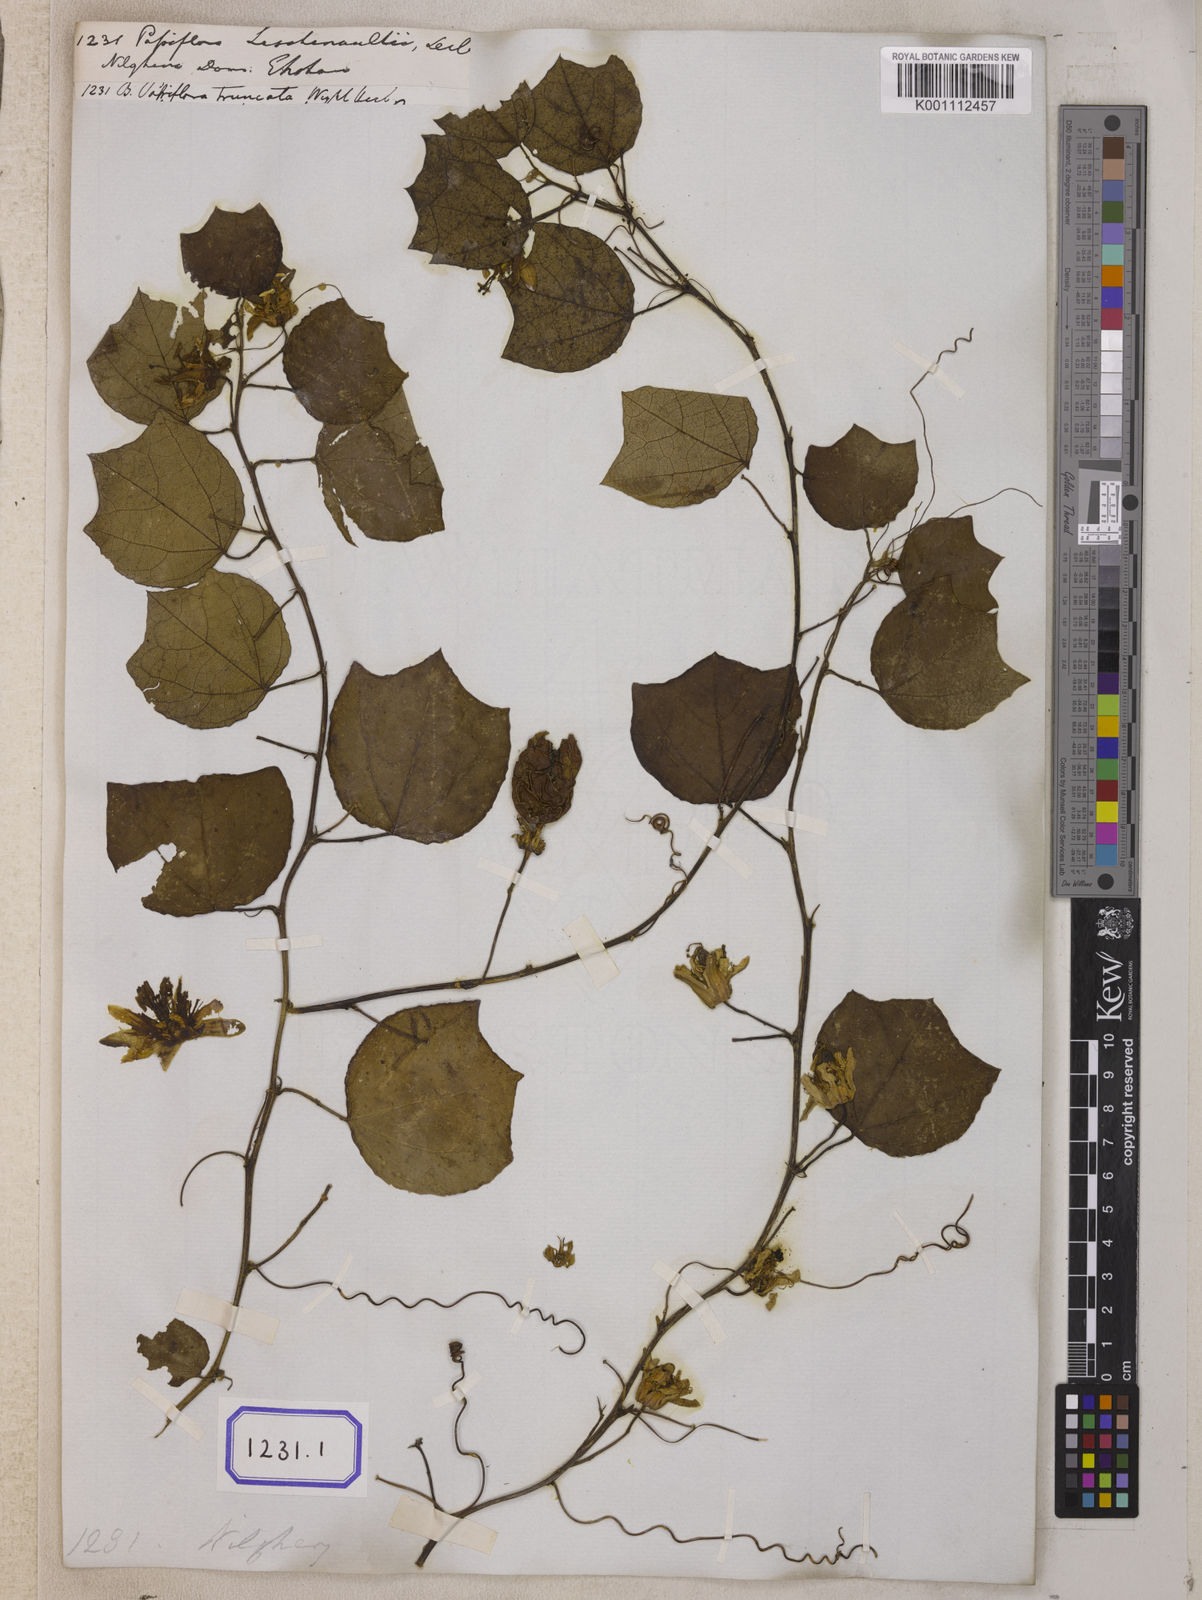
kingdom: Plantae
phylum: Tracheophyta
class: Magnoliopsida
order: Malpighiales
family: Passifloraceae
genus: Passiflora
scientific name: Passiflora leschenaultii
